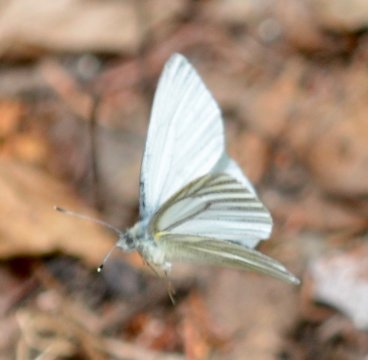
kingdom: Animalia
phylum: Arthropoda
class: Insecta
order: Lepidoptera
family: Pieridae
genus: Pieris
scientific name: Pieris angelika
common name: Arctic White
